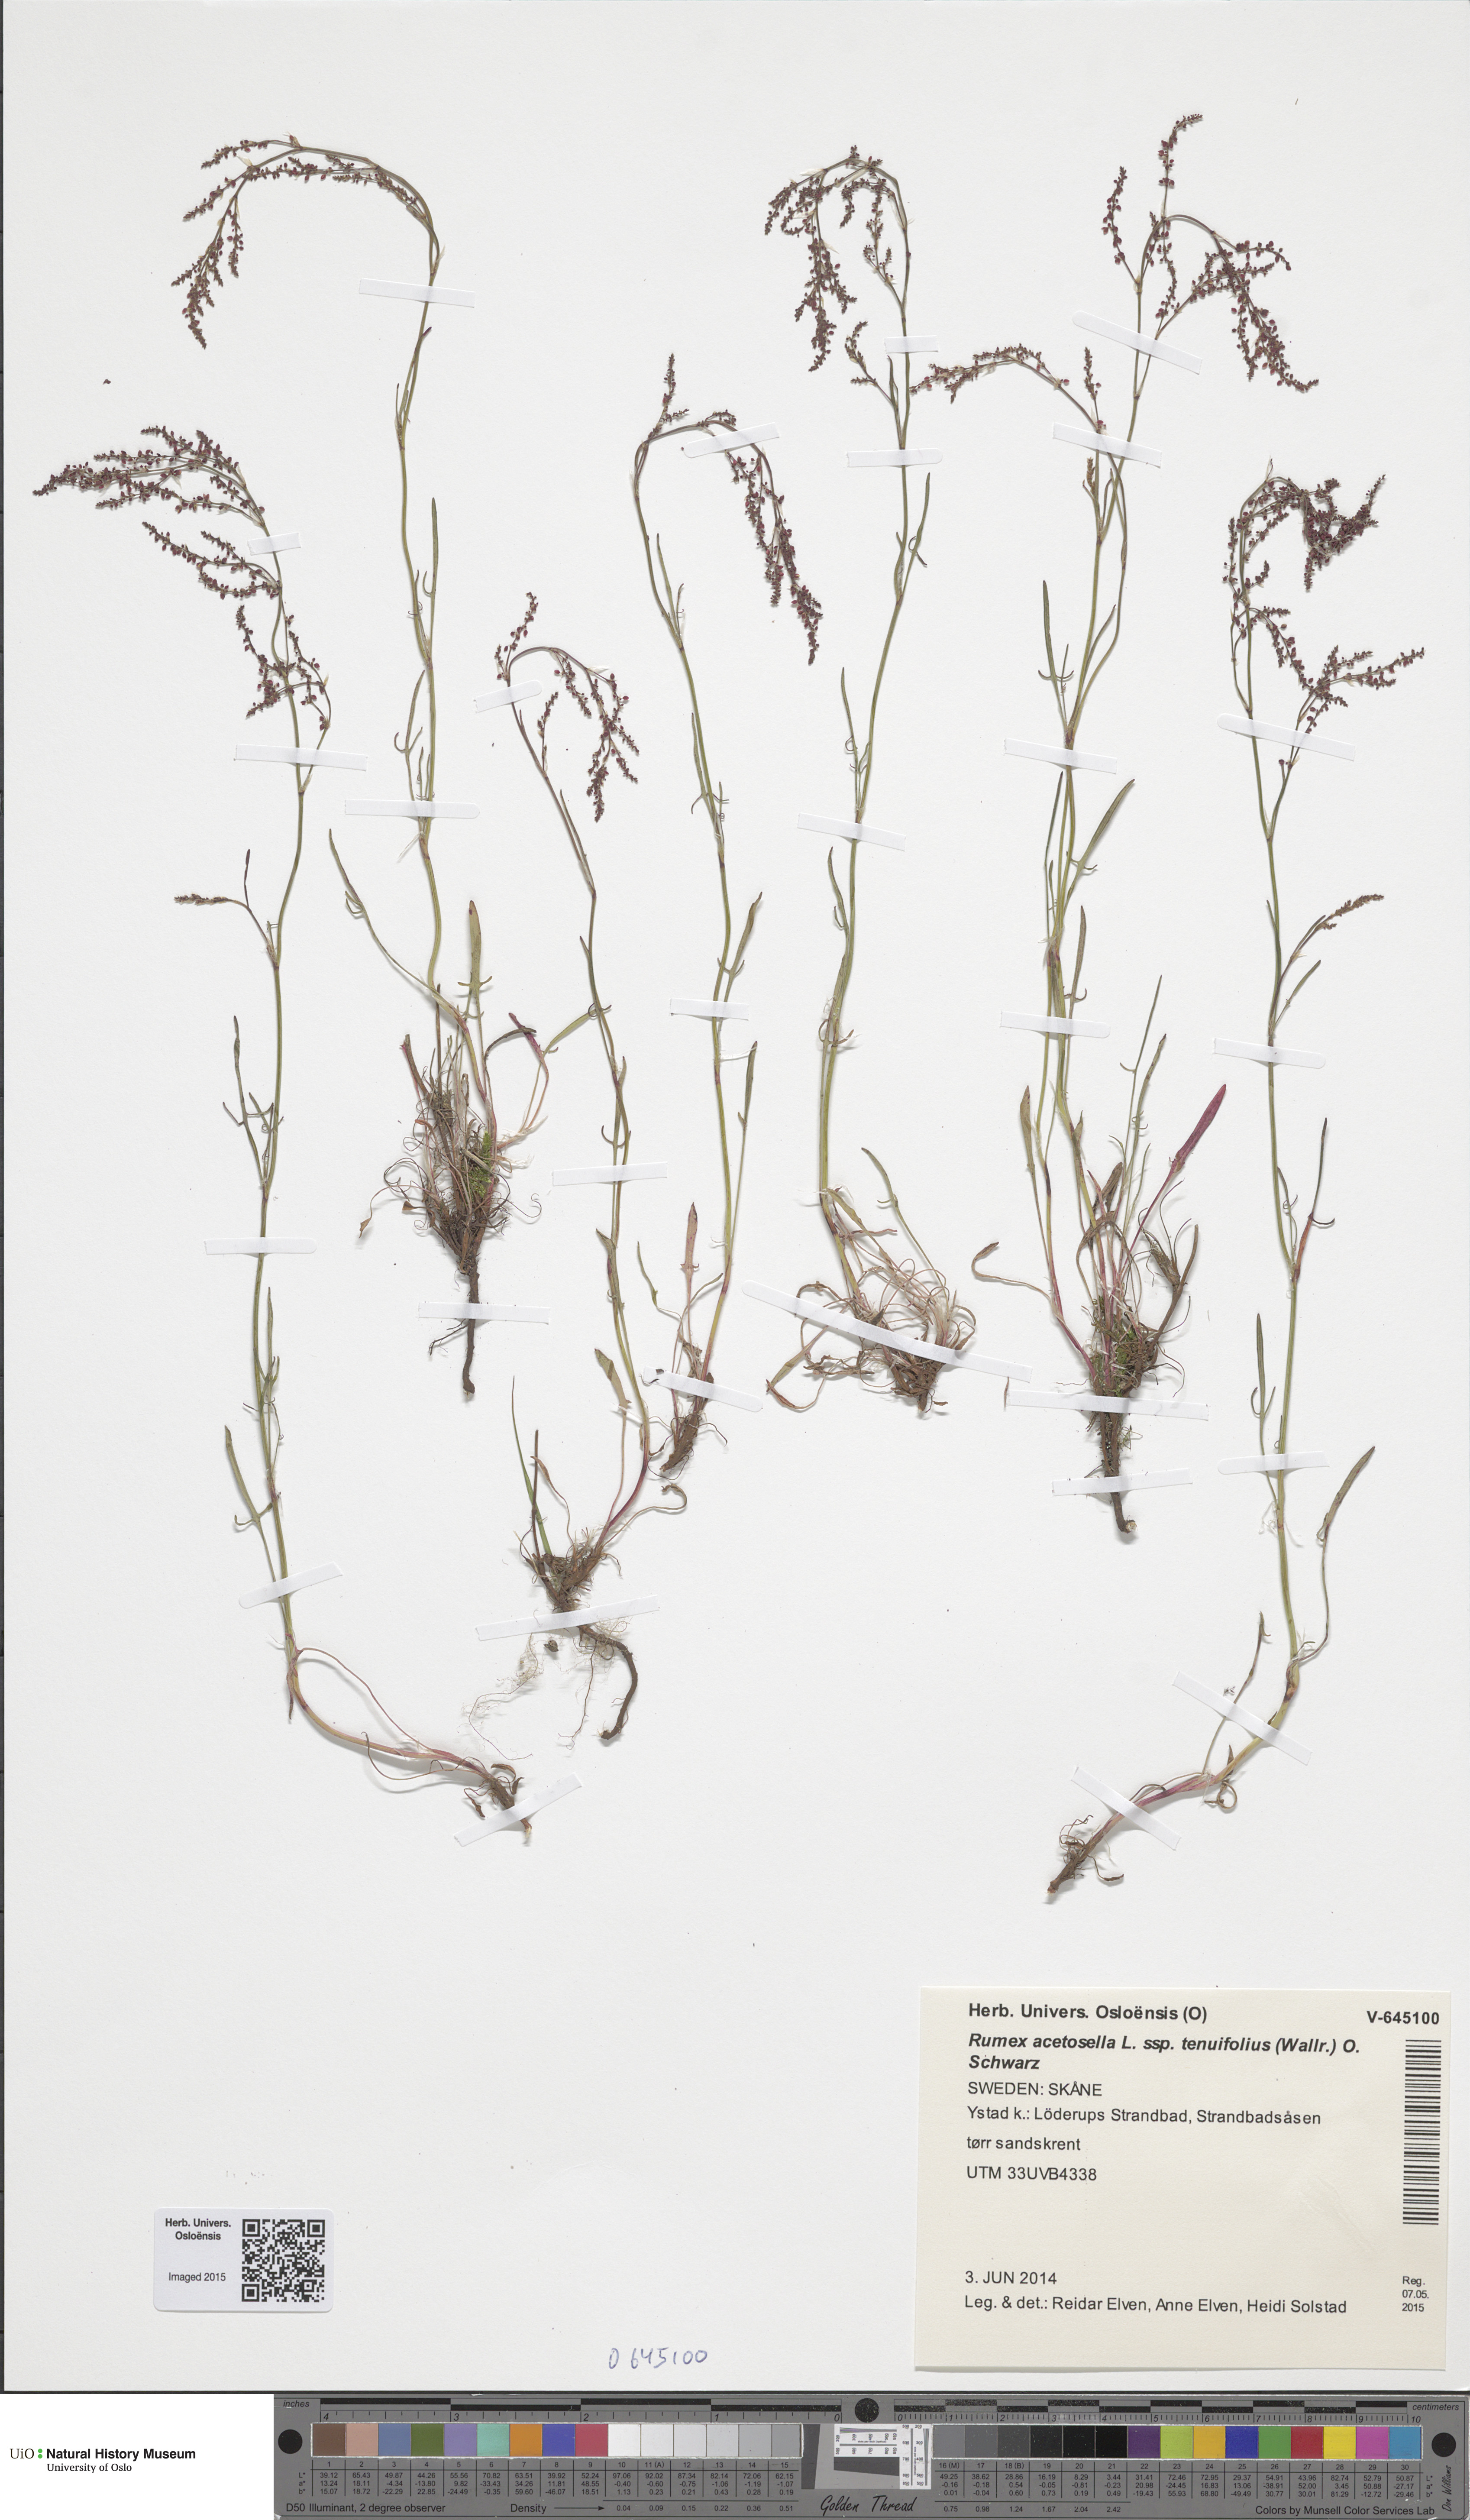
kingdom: Plantae
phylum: Tracheophyta
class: Magnoliopsida
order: Caryophyllales
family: Polygonaceae
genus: Rumex
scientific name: Rumex acetosella
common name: Common sheep sorrel
